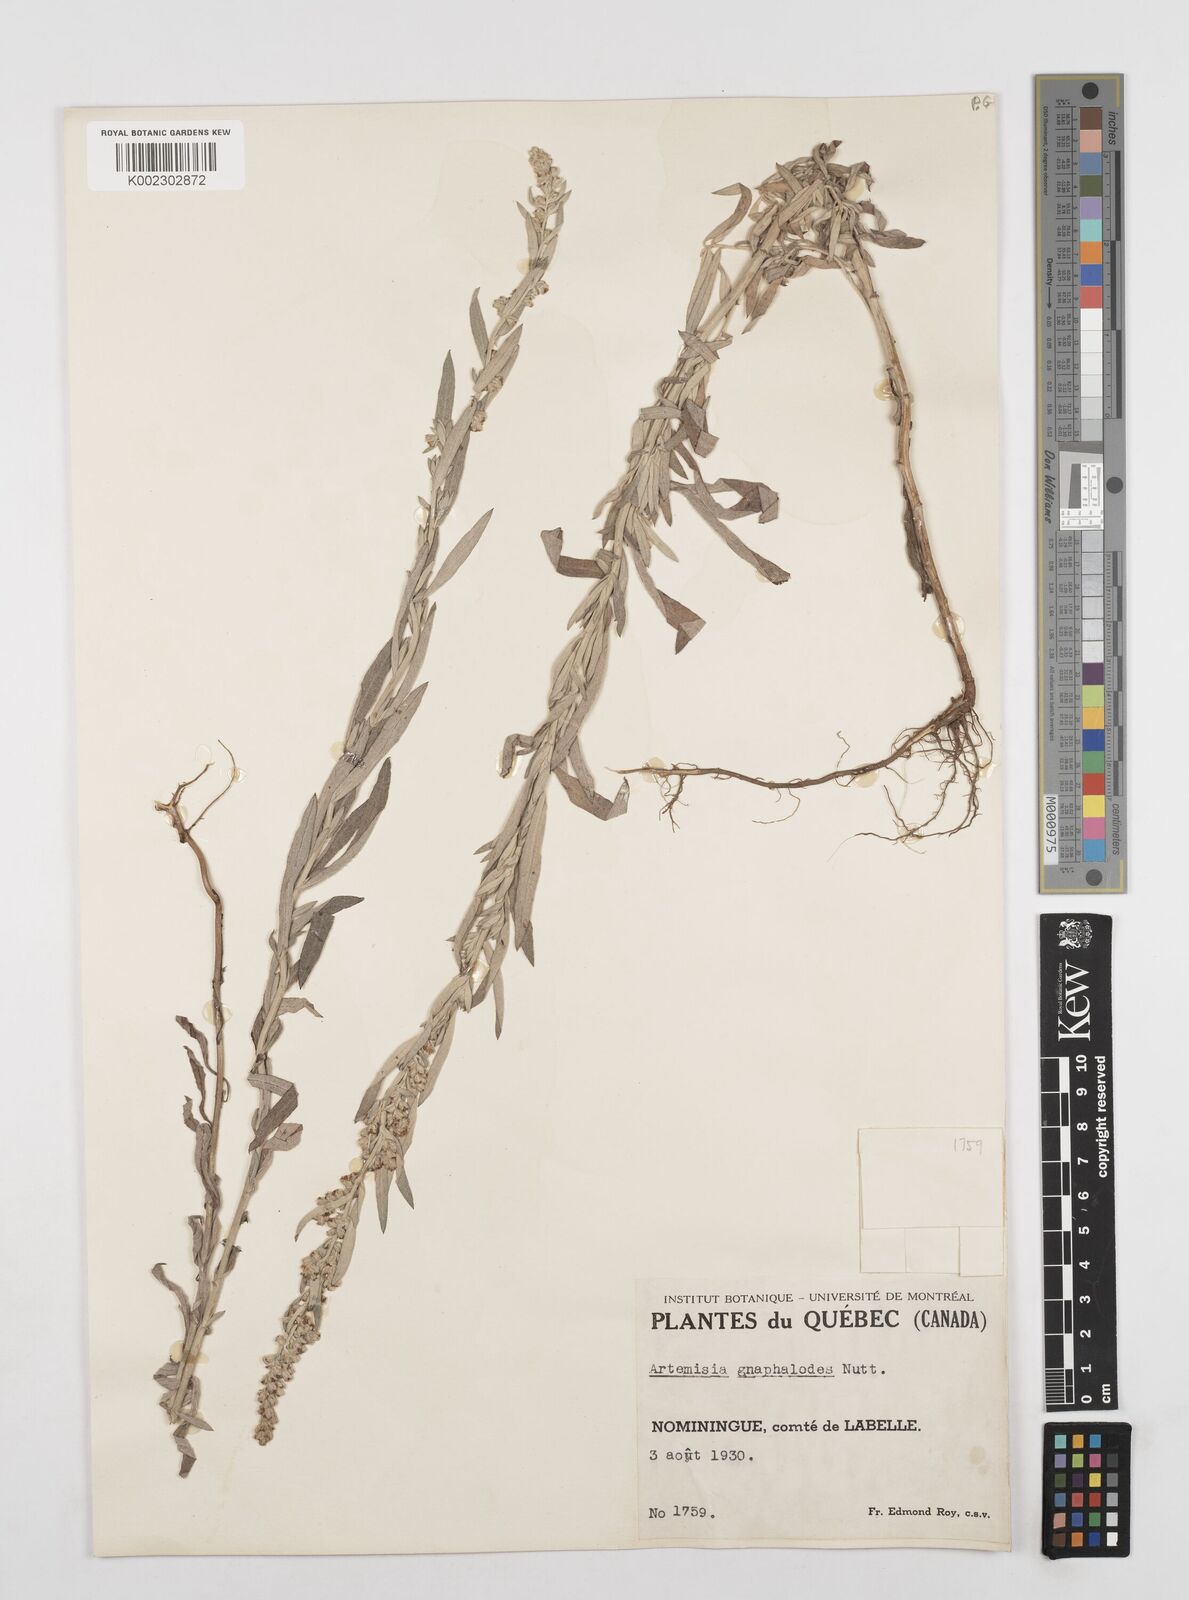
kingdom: Plantae
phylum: Tracheophyta
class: Magnoliopsida
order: Asterales
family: Asteraceae
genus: Artemisia
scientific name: Artemisia ludoviciana
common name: Western mugwort
